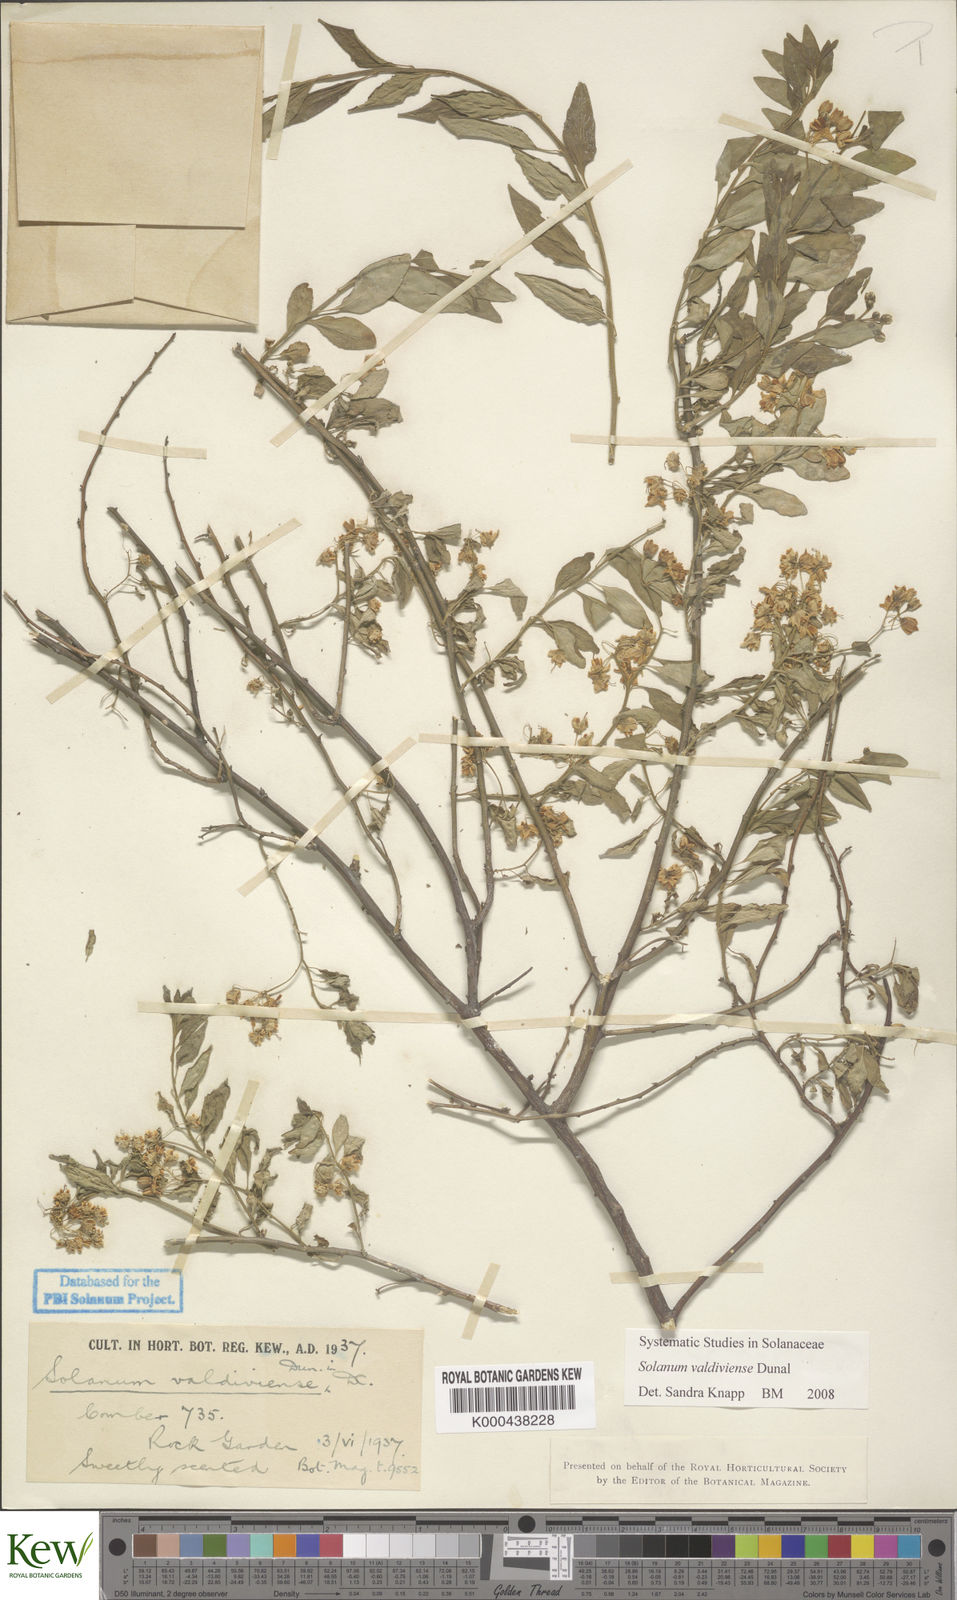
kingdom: Plantae
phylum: Tracheophyta
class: Magnoliopsida
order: Solanales
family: Solanaceae
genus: Solanum
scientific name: Solanum valdiviense
